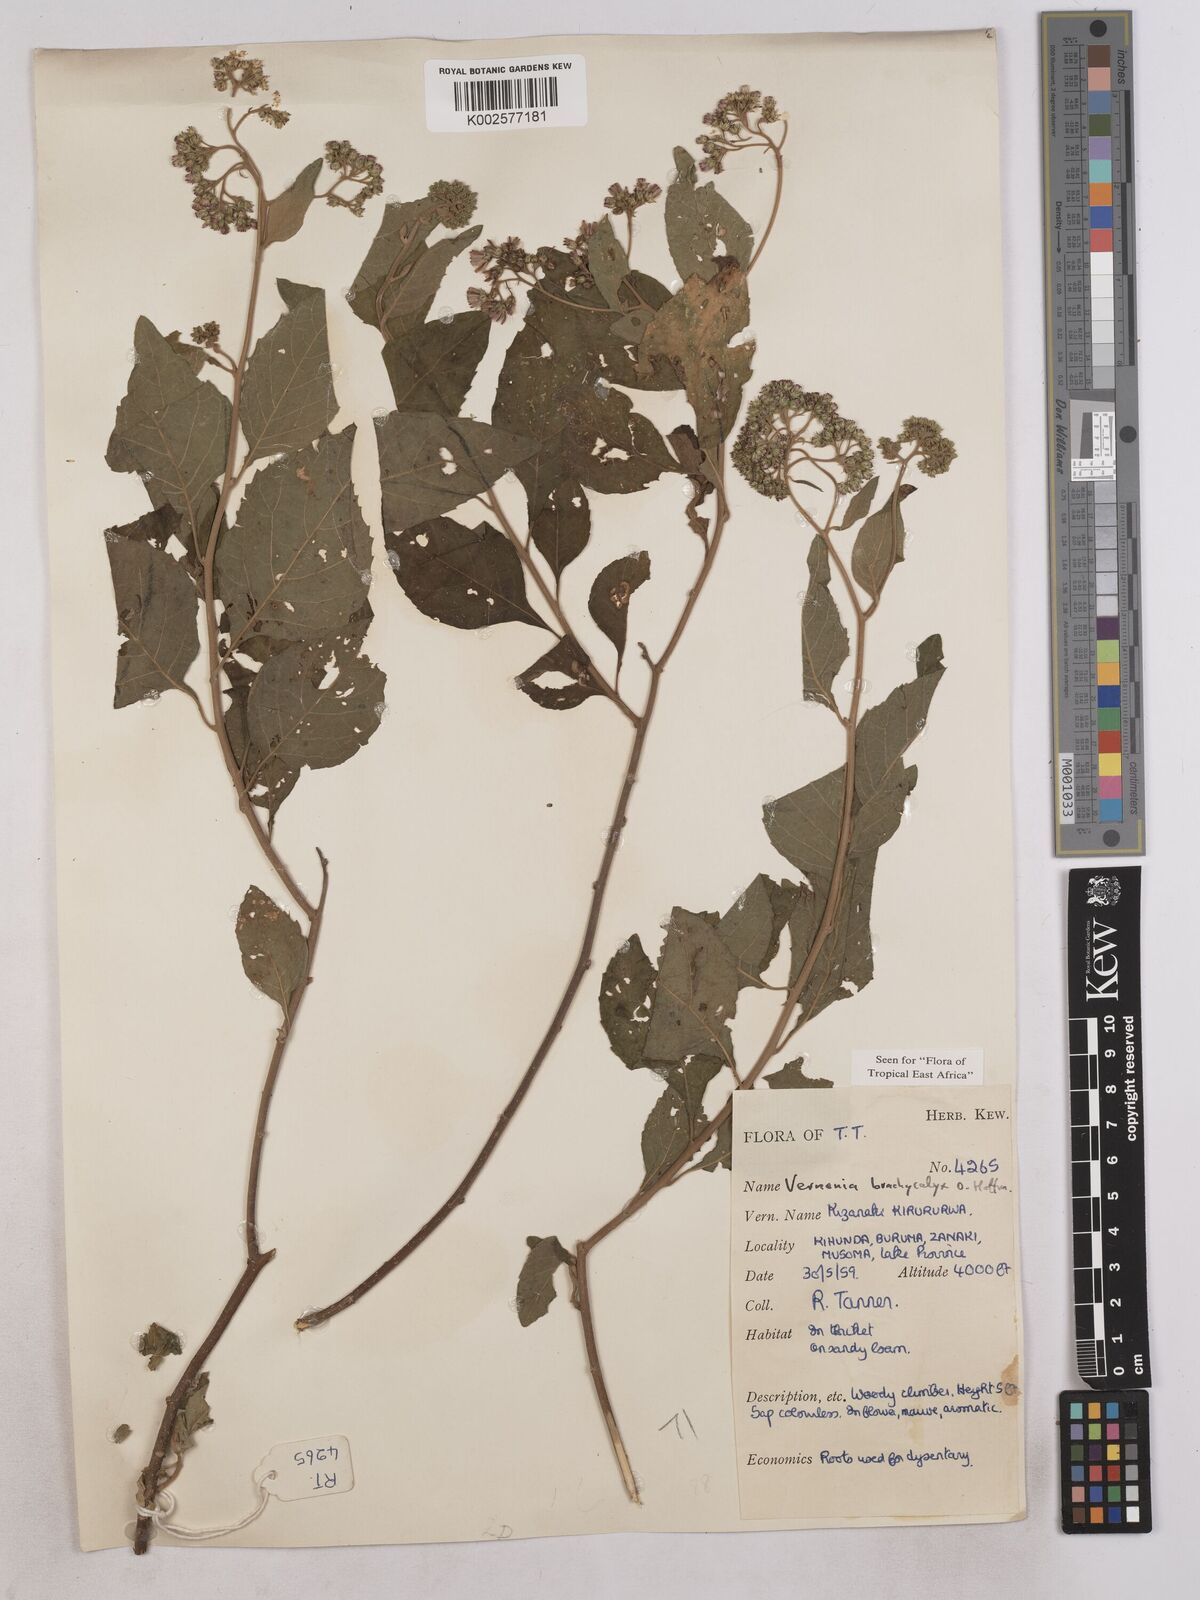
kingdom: Plantae
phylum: Tracheophyta
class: Magnoliopsida
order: Asterales
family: Asteraceae
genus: Hoffmannanthus
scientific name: Hoffmannanthus abbotianus
